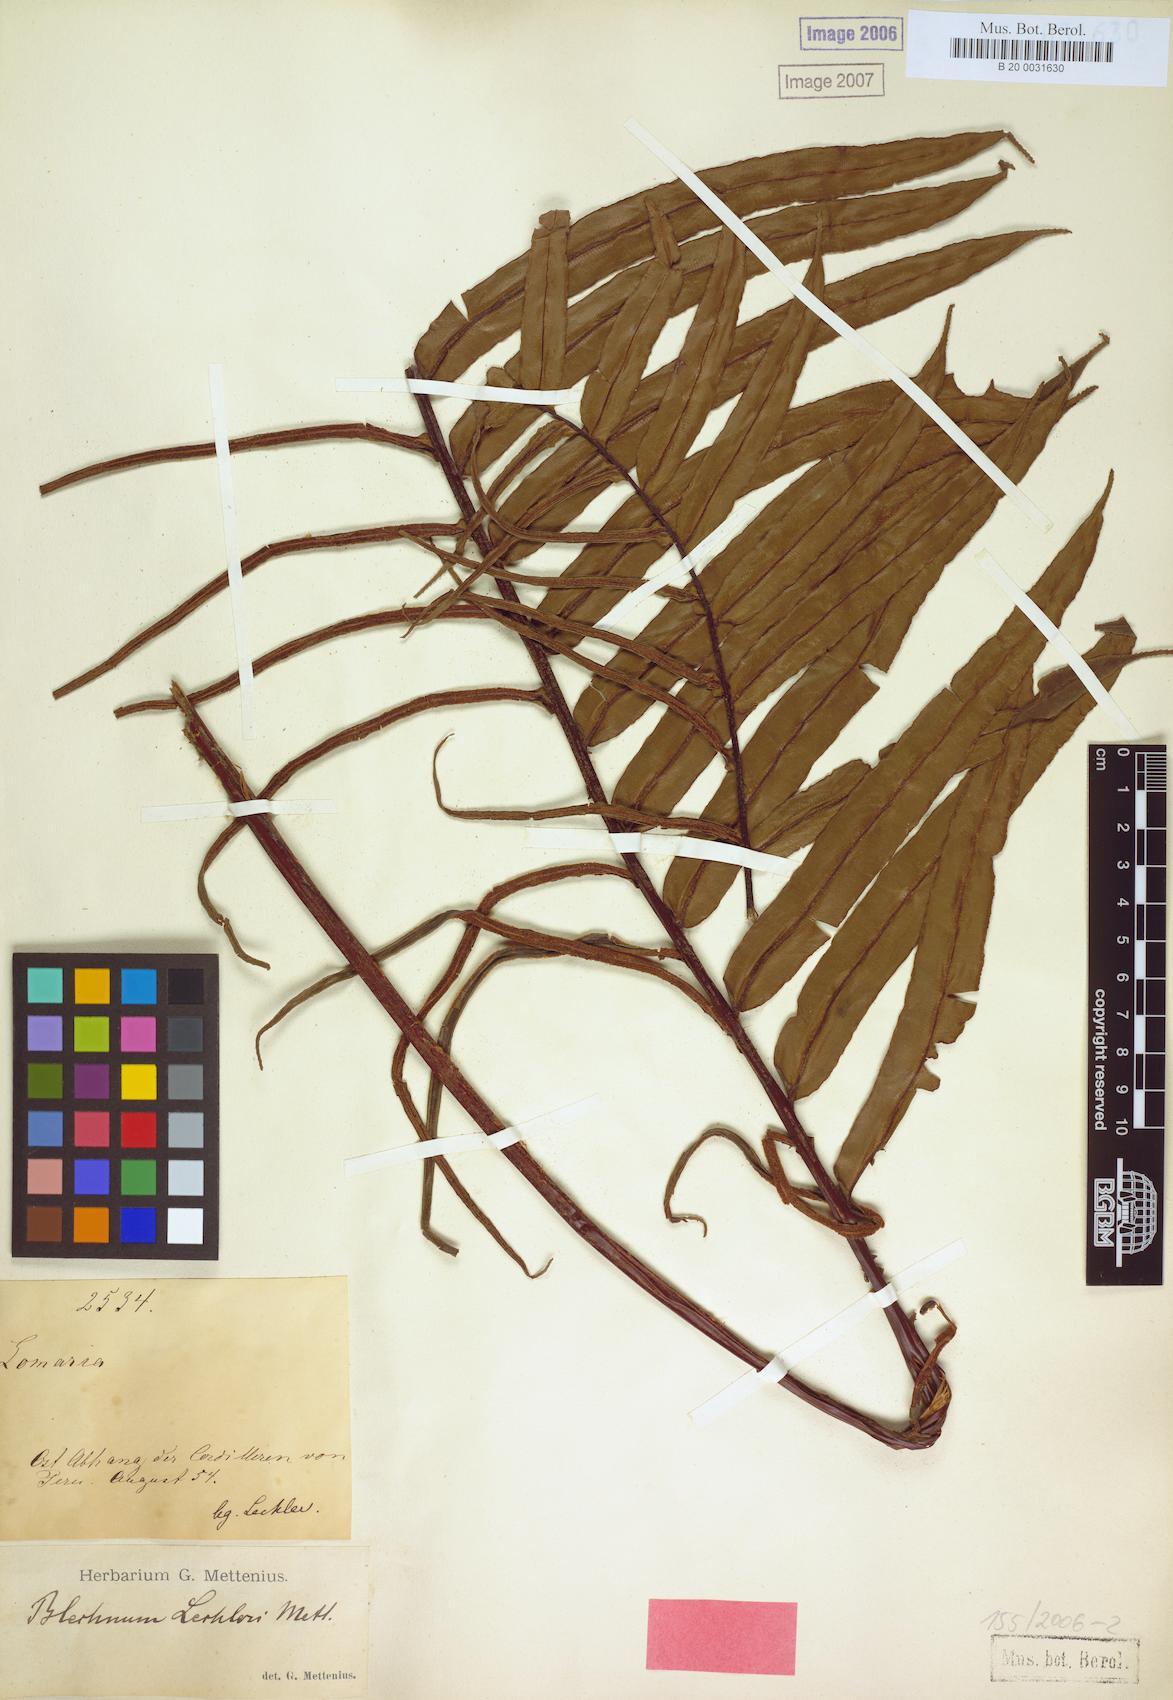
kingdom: Plantae
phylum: Tracheophyta
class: Polypodiopsida
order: Polypodiales
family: Blechnaceae
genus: Parablechnum
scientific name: Parablechnum lechleri
